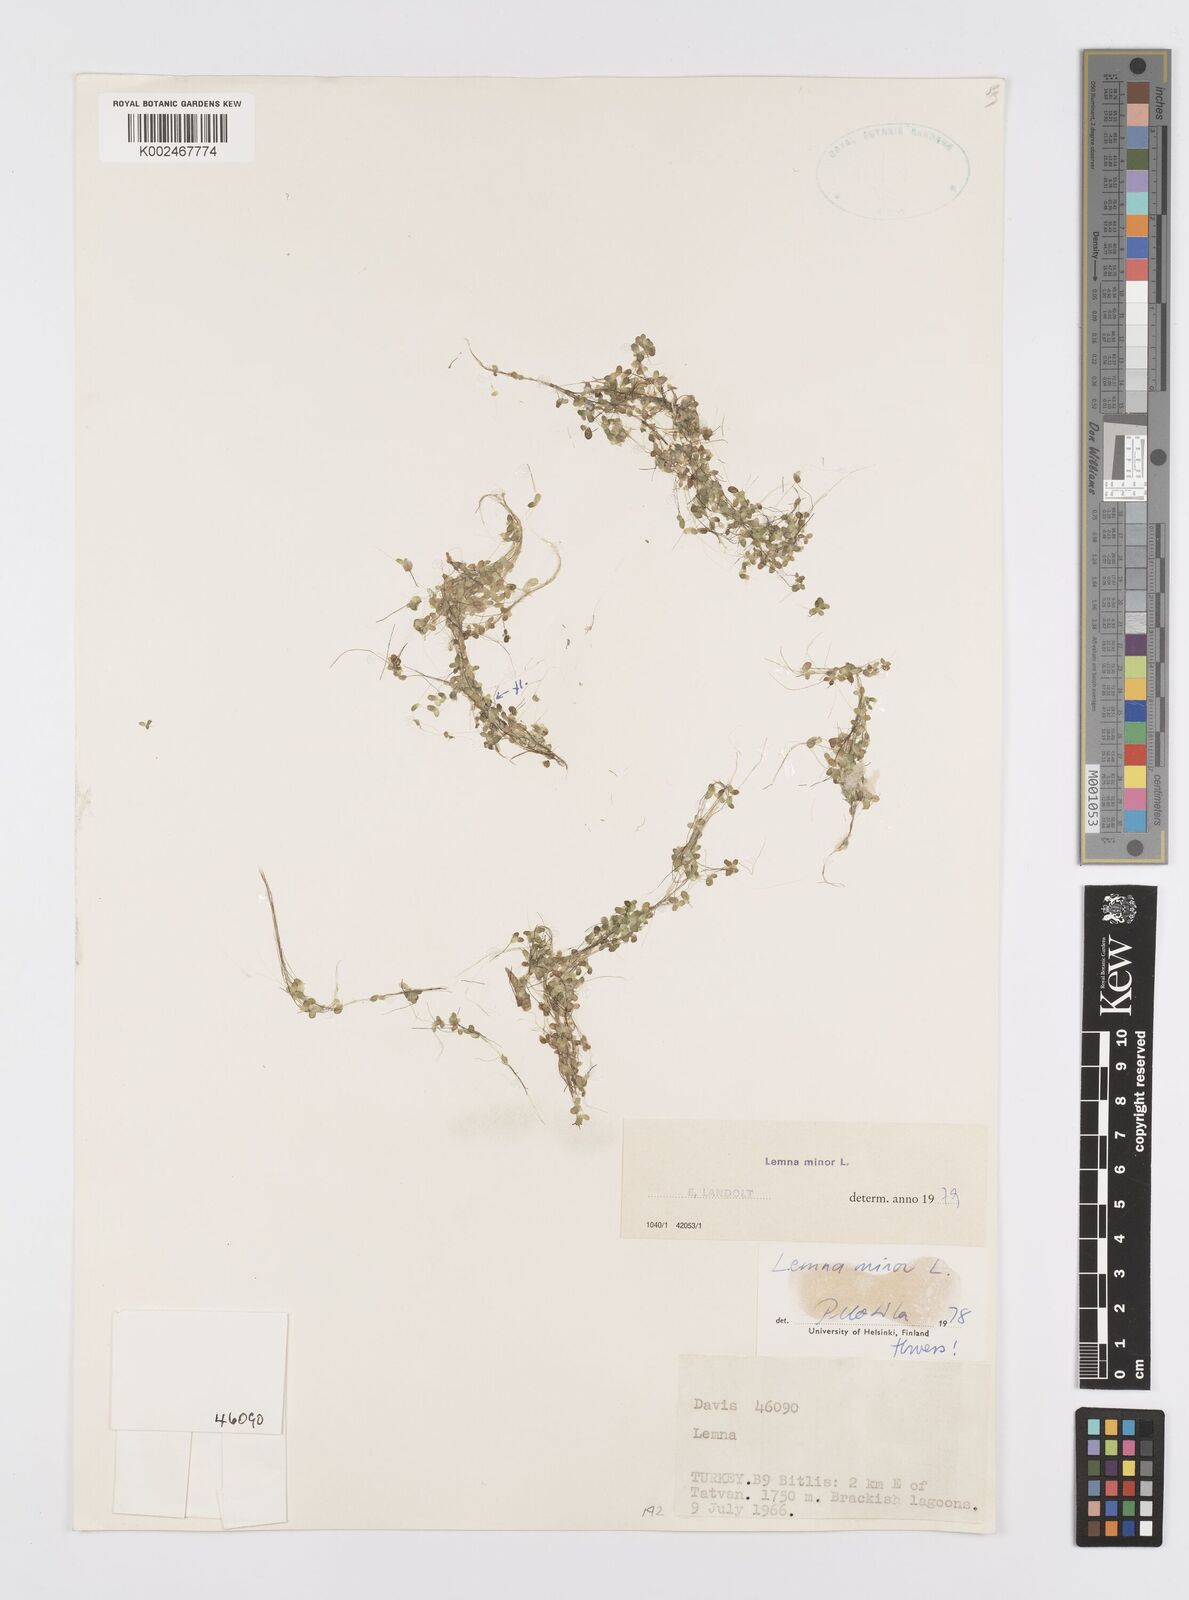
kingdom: Plantae
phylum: Tracheophyta
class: Liliopsida
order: Alismatales
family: Araceae
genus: Lemna
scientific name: Lemna minor
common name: Common duckweed
